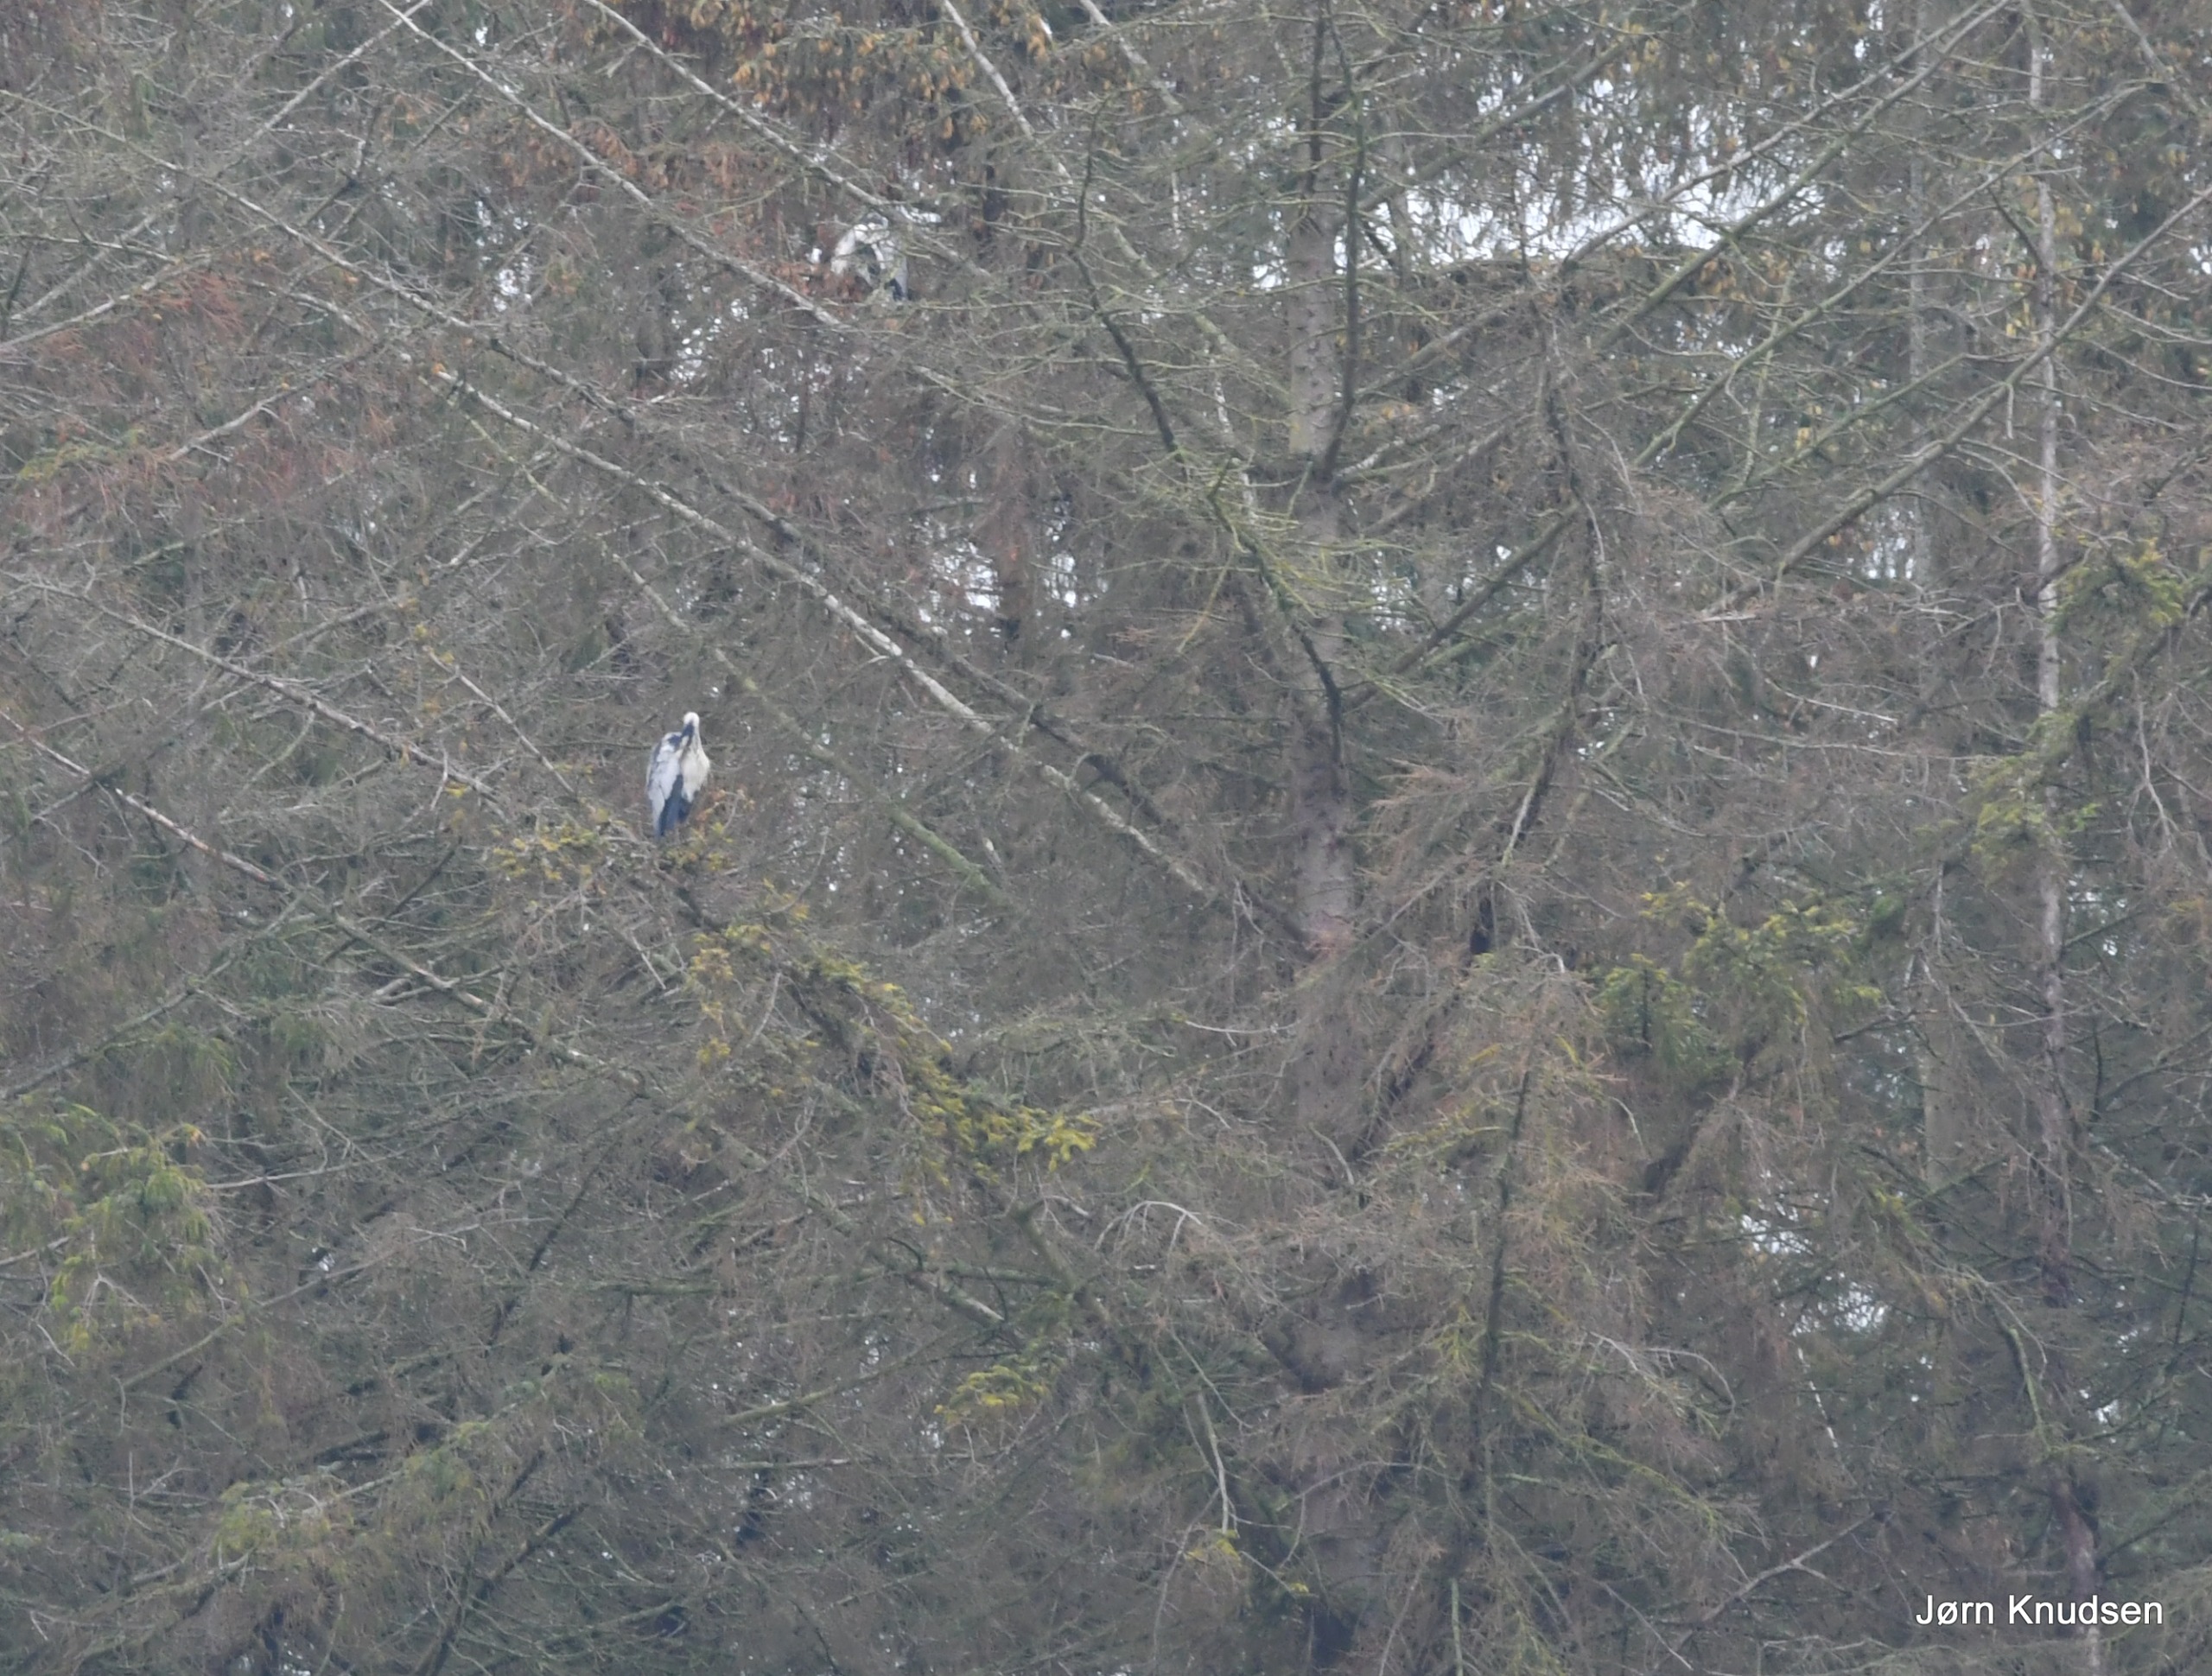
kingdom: Animalia
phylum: Chordata
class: Aves
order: Pelecaniformes
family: Ardeidae
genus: Ardea
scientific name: Ardea cinerea
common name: Fiskehejre
